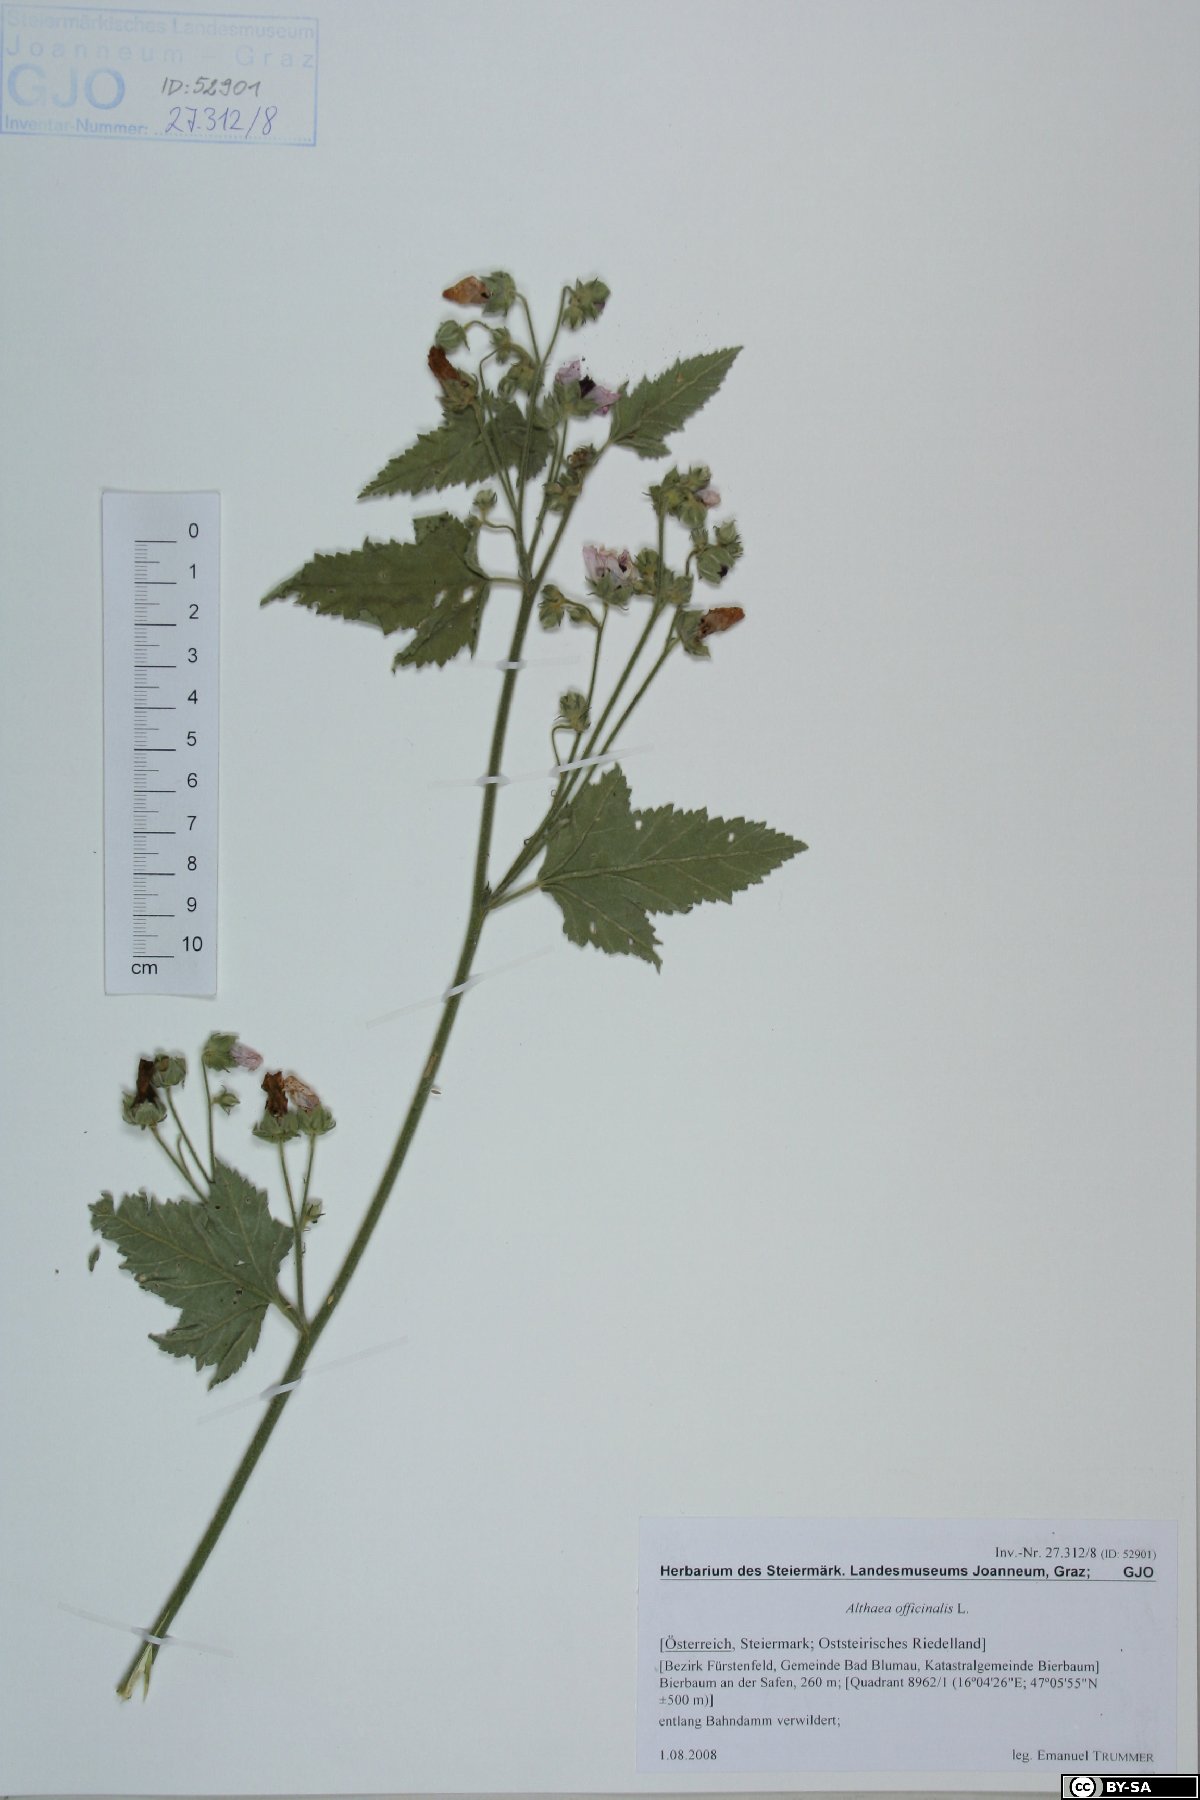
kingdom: Plantae
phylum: Tracheophyta
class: Magnoliopsida
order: Malvales
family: Malvaceae
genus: Althaea
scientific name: Althaea officinalis
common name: Marsh-mallow
